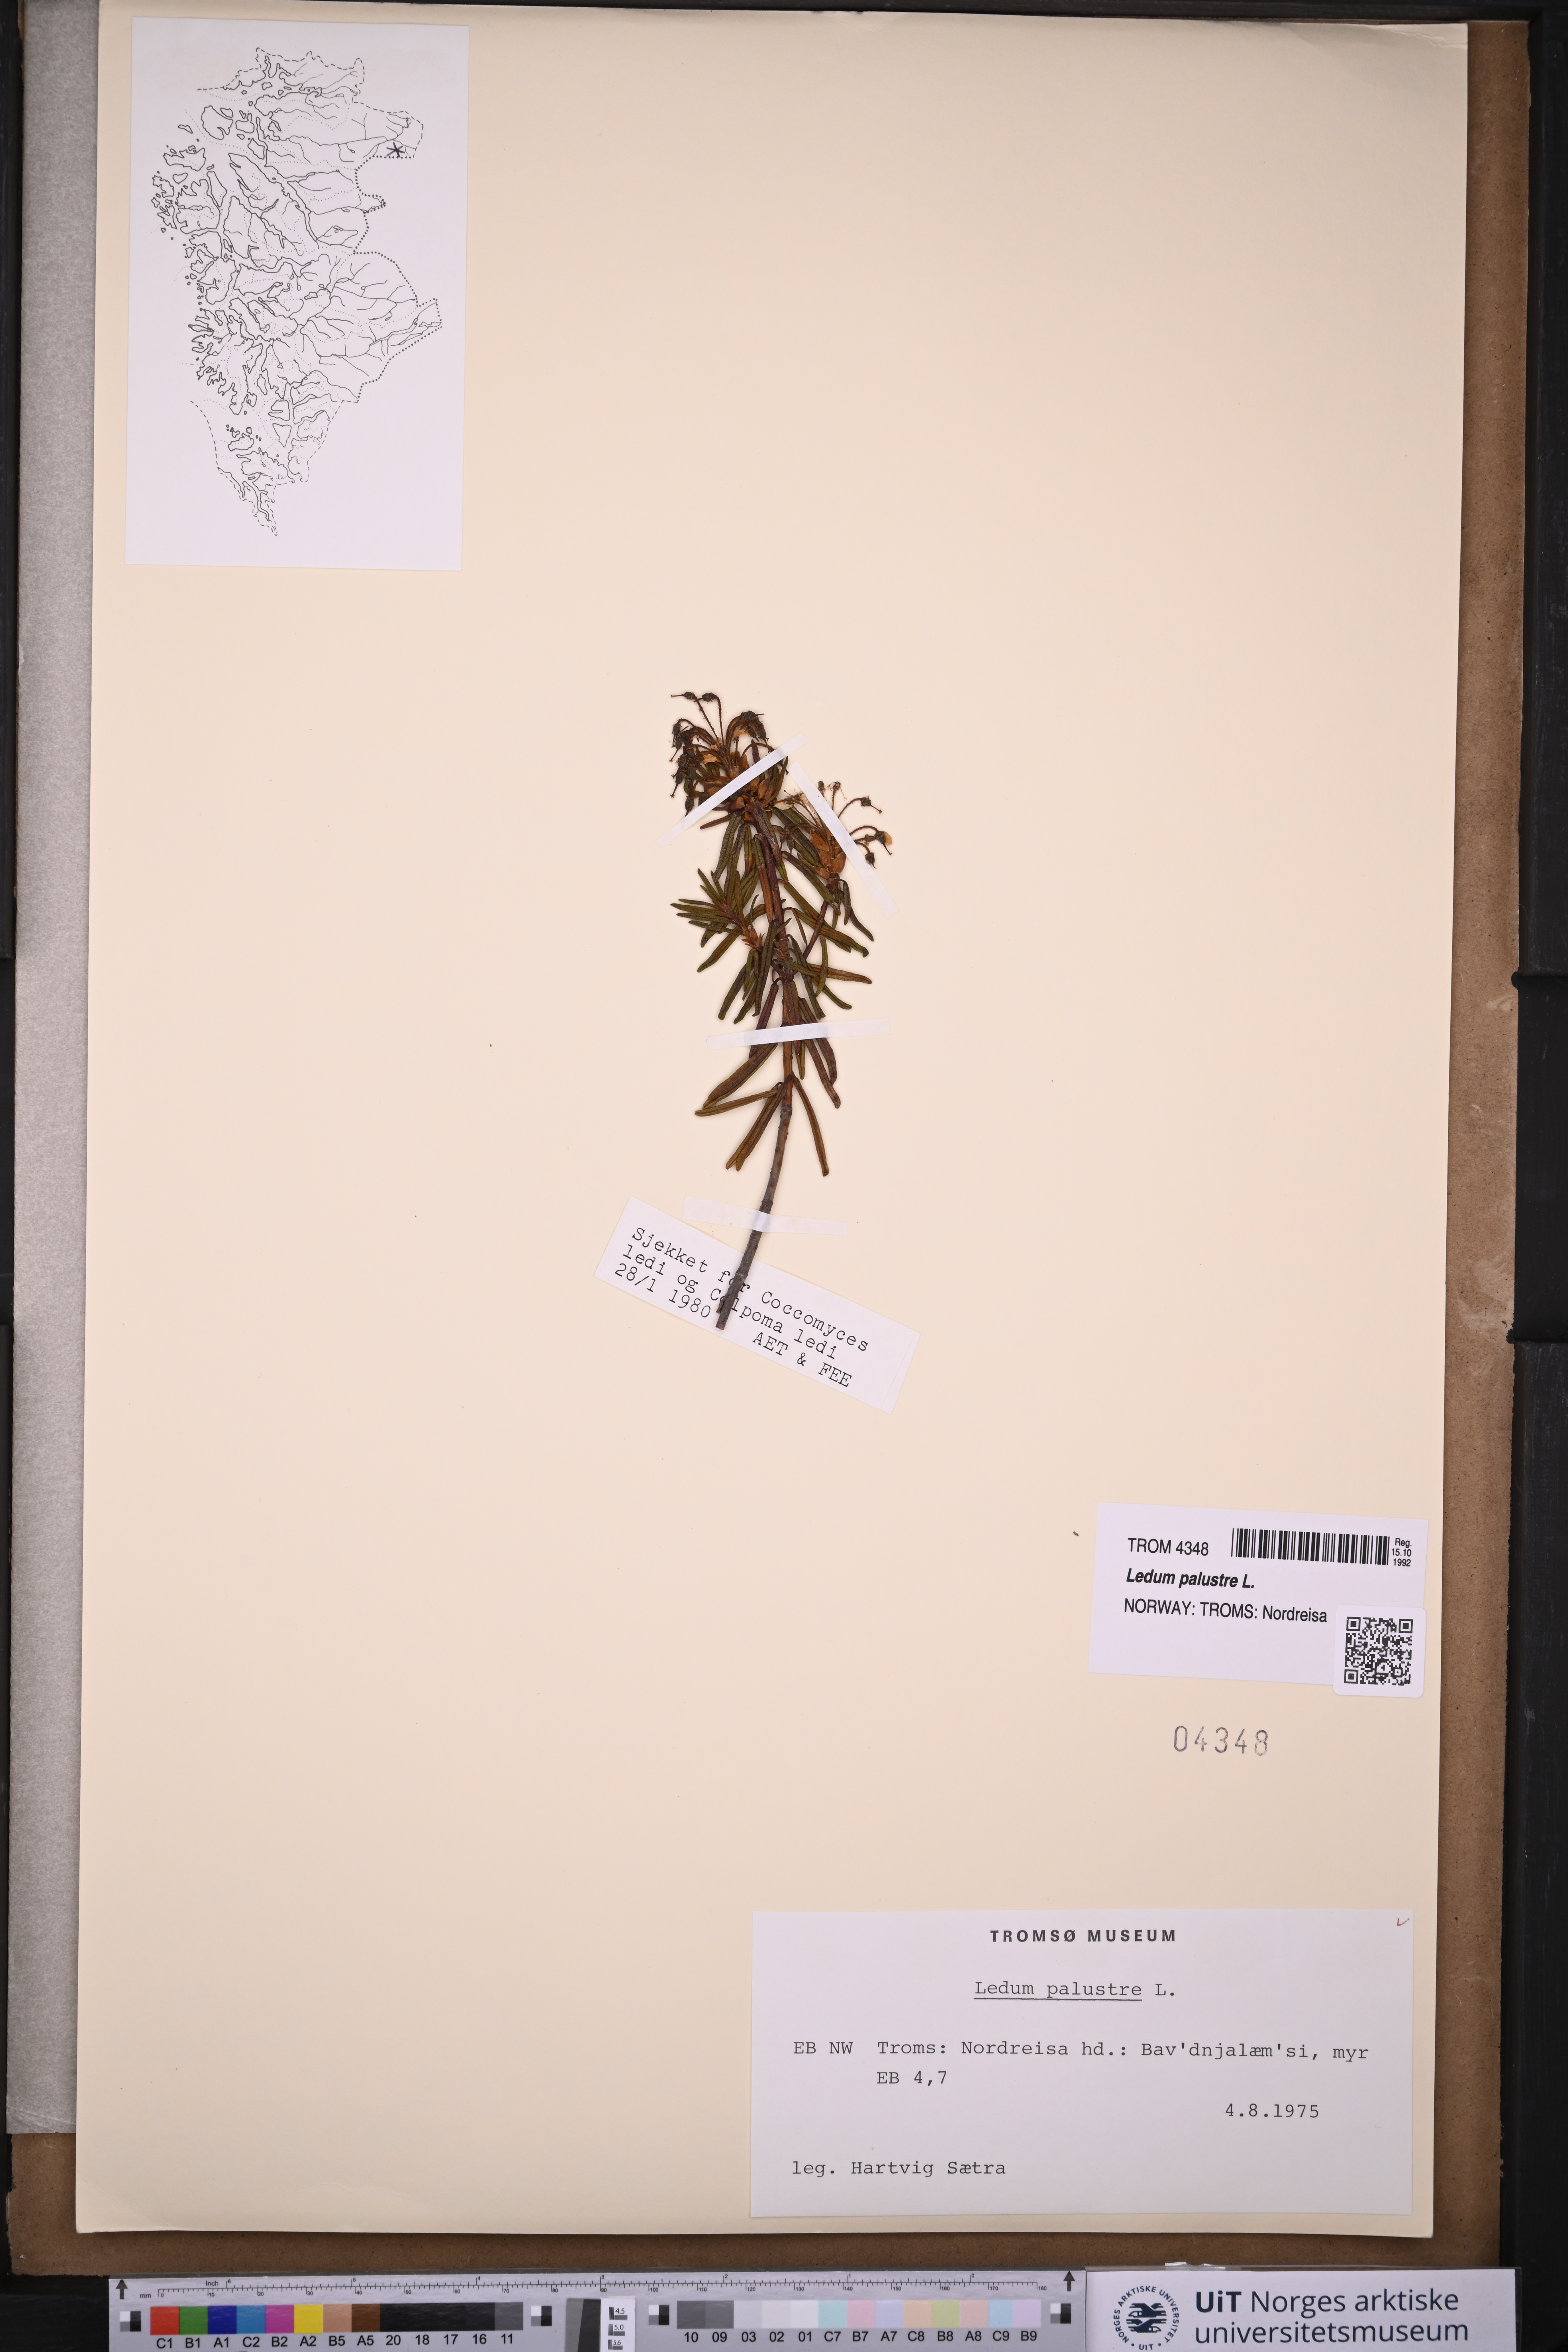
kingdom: Plantae
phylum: Tracheophyta
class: Magnoliopsida
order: Ericales
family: Ericaceae
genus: Rhododendron
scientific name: Rhododendron tomentosum
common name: Marsh labrador tea
